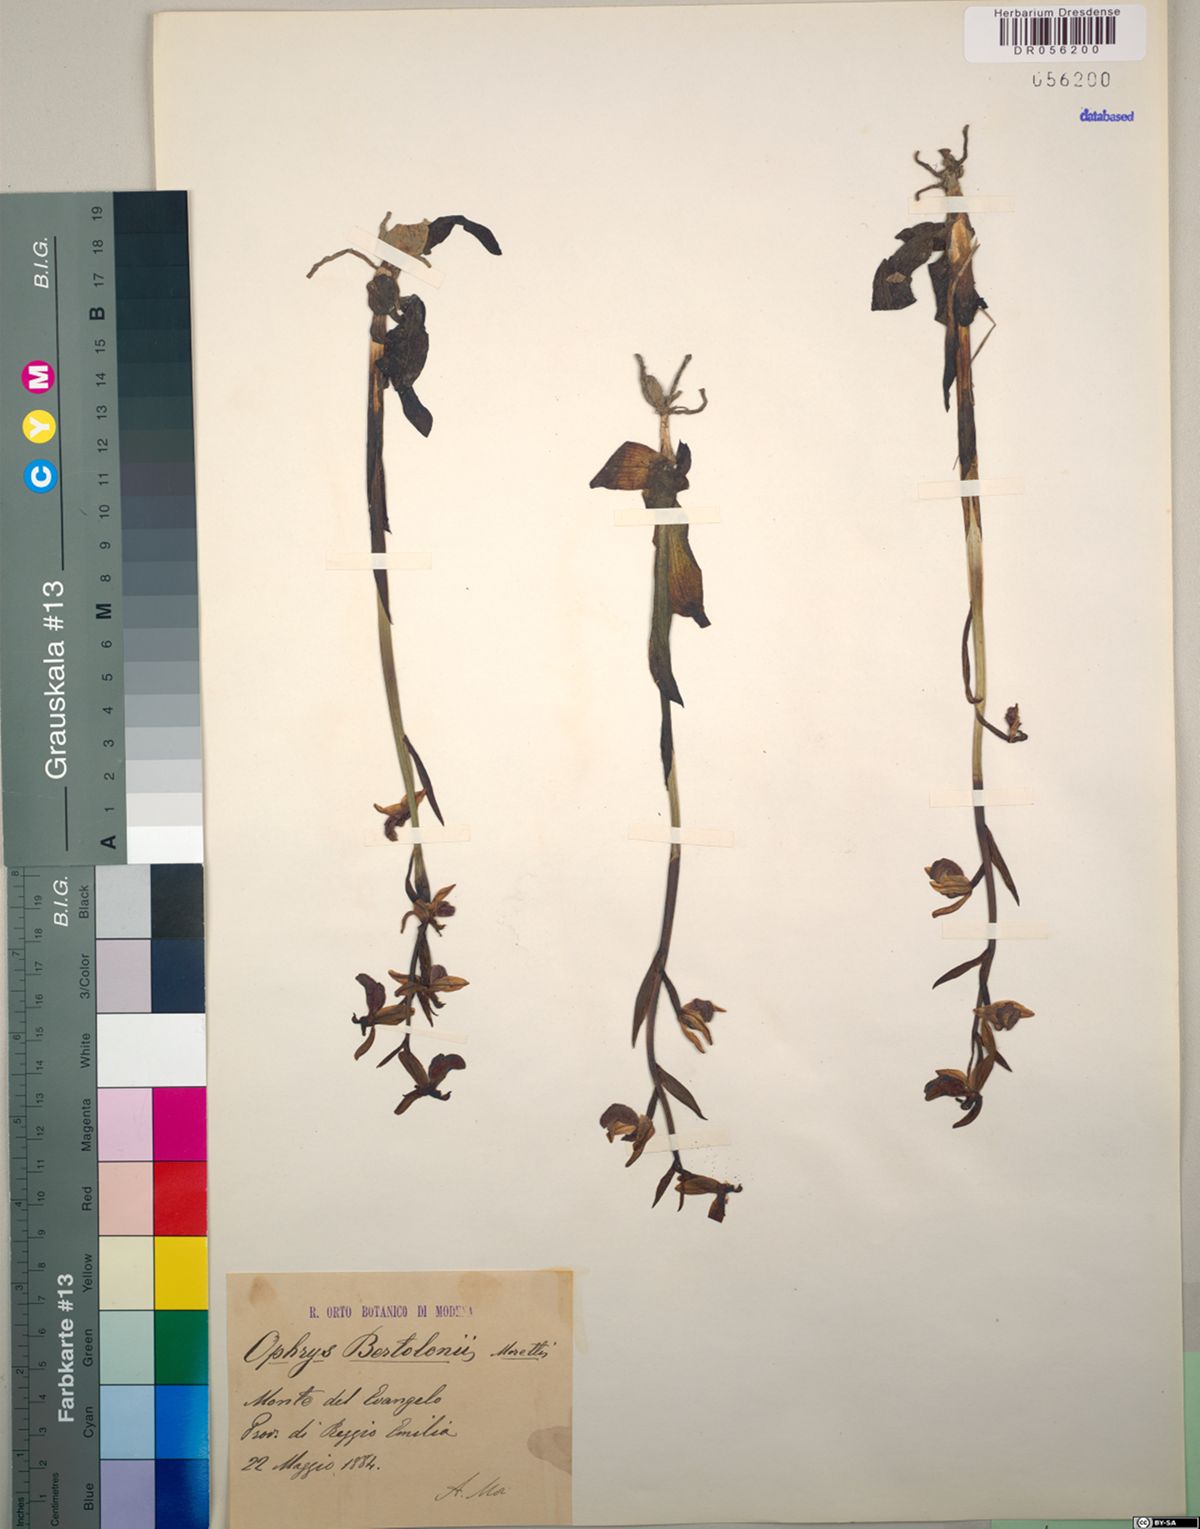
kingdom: Plantae
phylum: Tracheophyta
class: Liliopsida
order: Asparagales
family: Orchidaceae
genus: Ophrys
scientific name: Ophrys bertolonii
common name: Bertoloni's bee orchid
